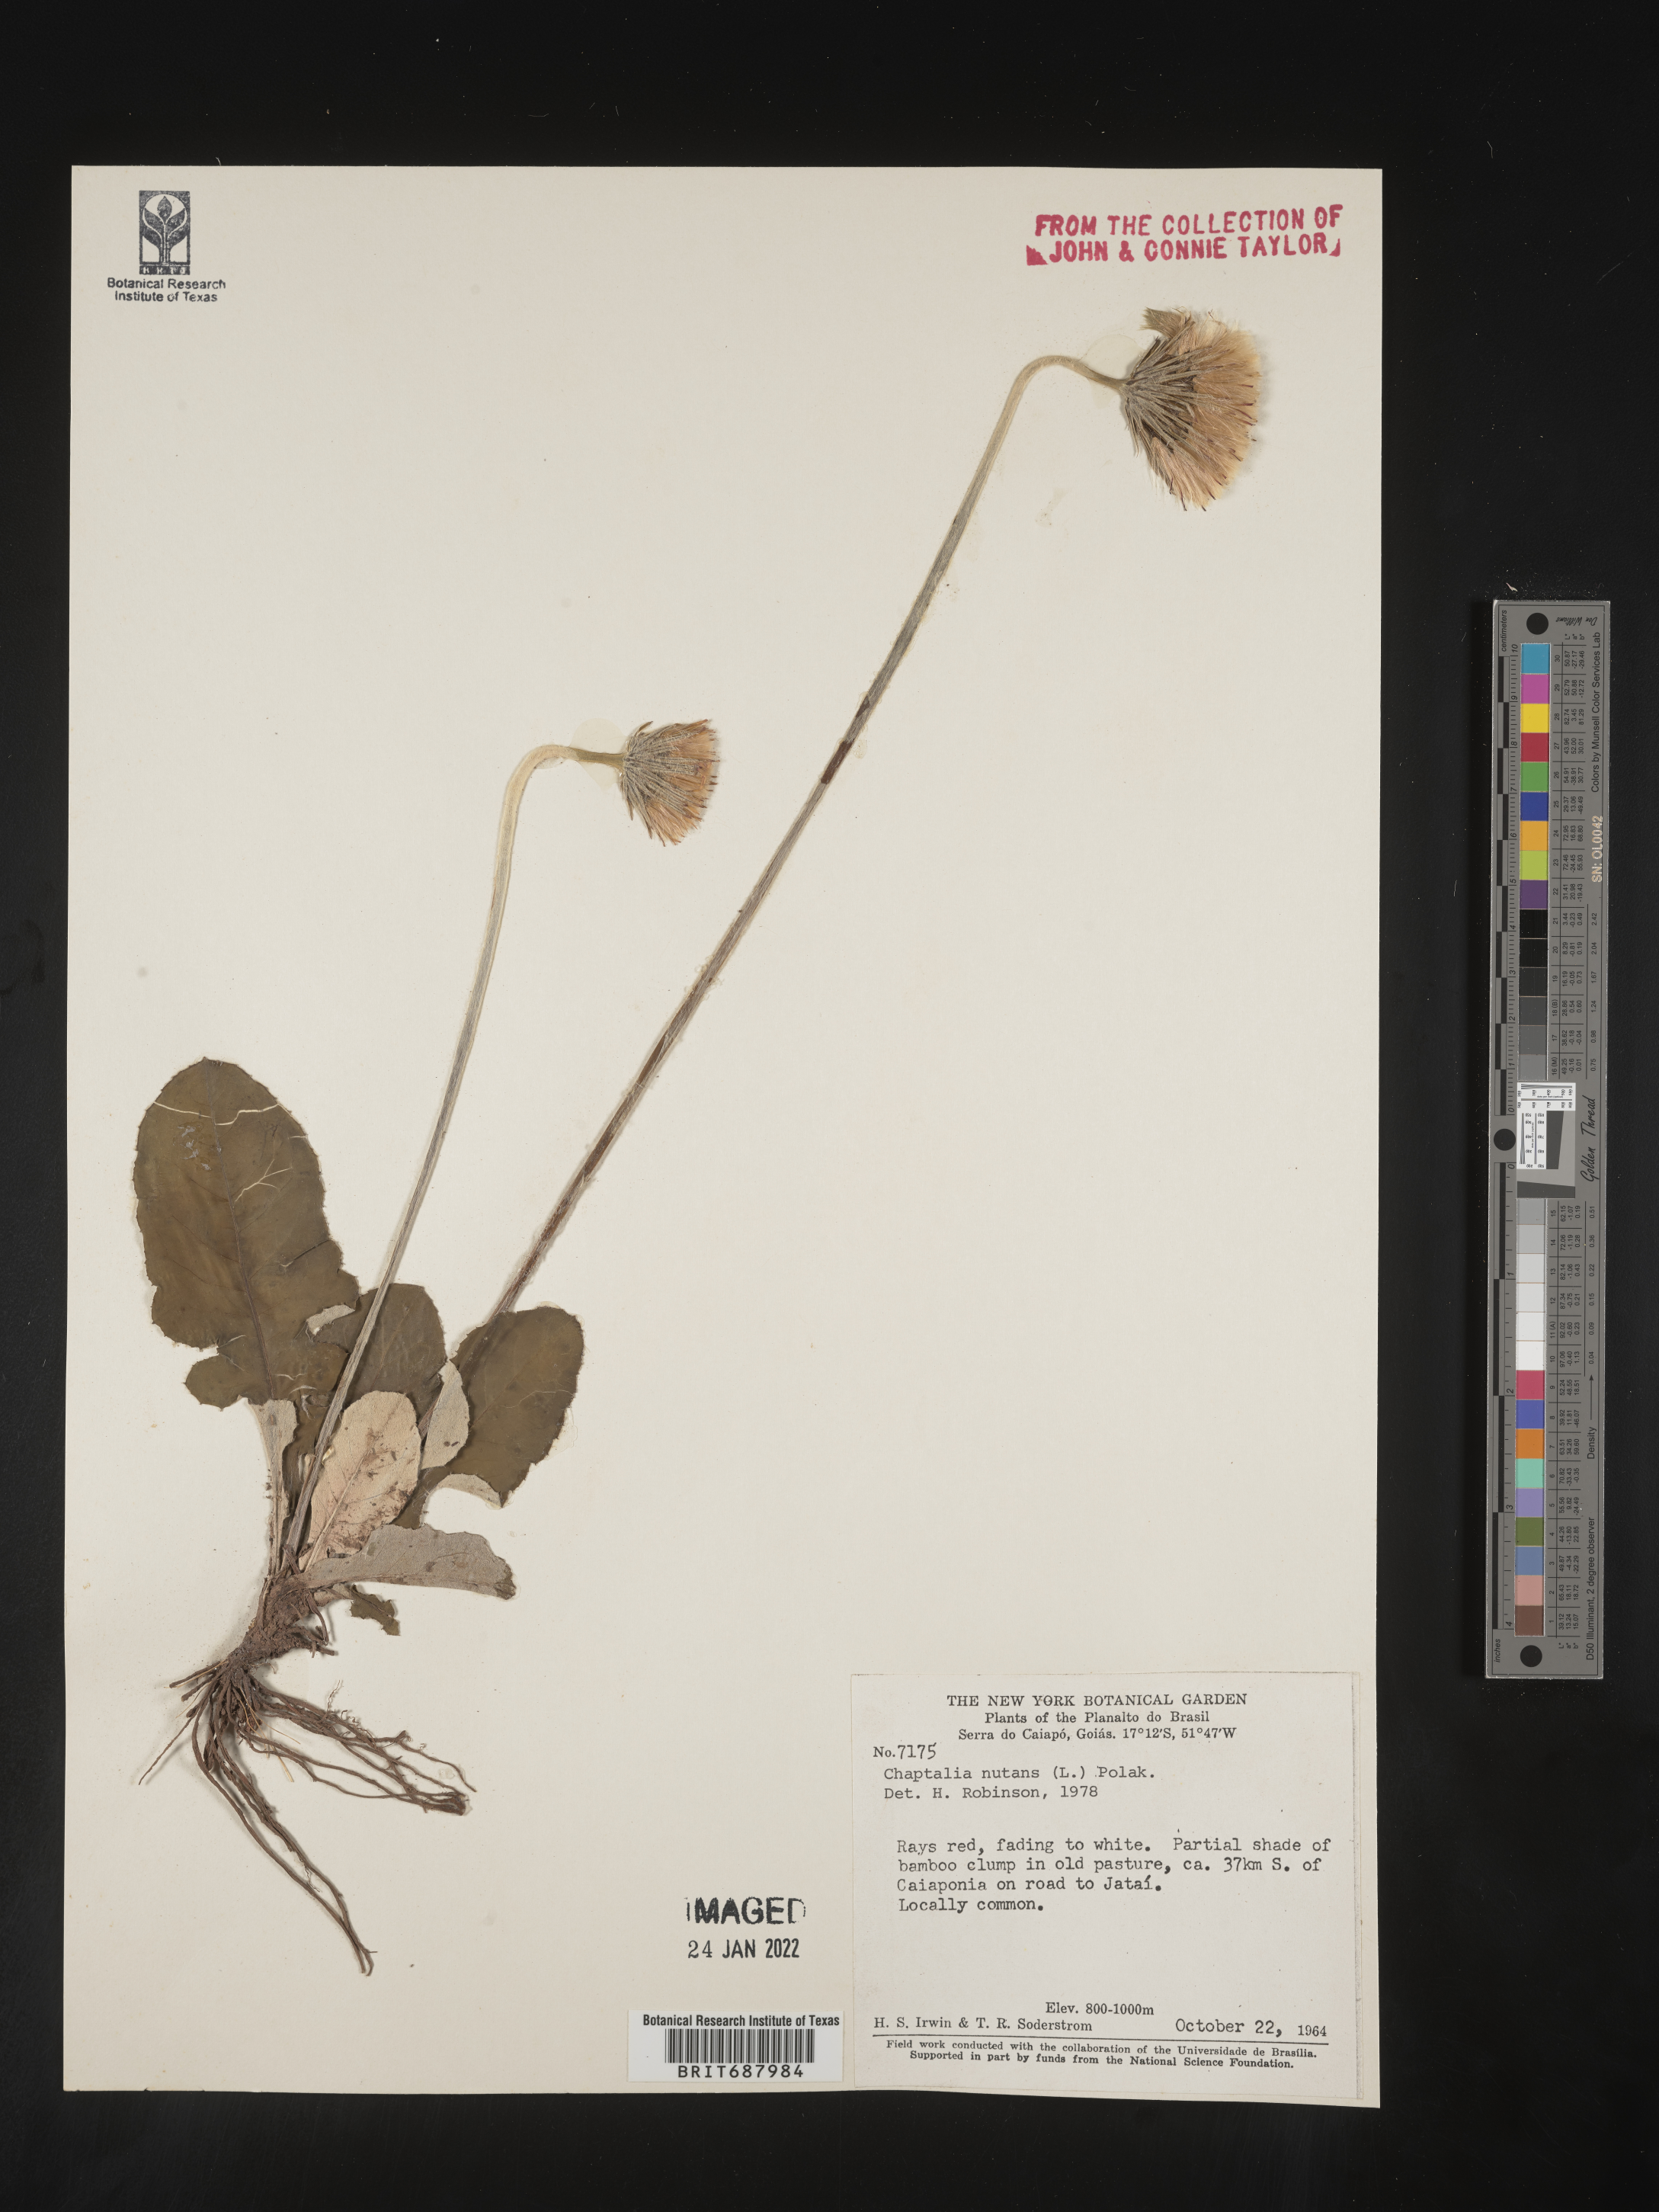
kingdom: Plantae
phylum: Tracheophyta
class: Magnoliopsida
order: Asterales
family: Asteraceae
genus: Chaptalia
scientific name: Chaptalia
